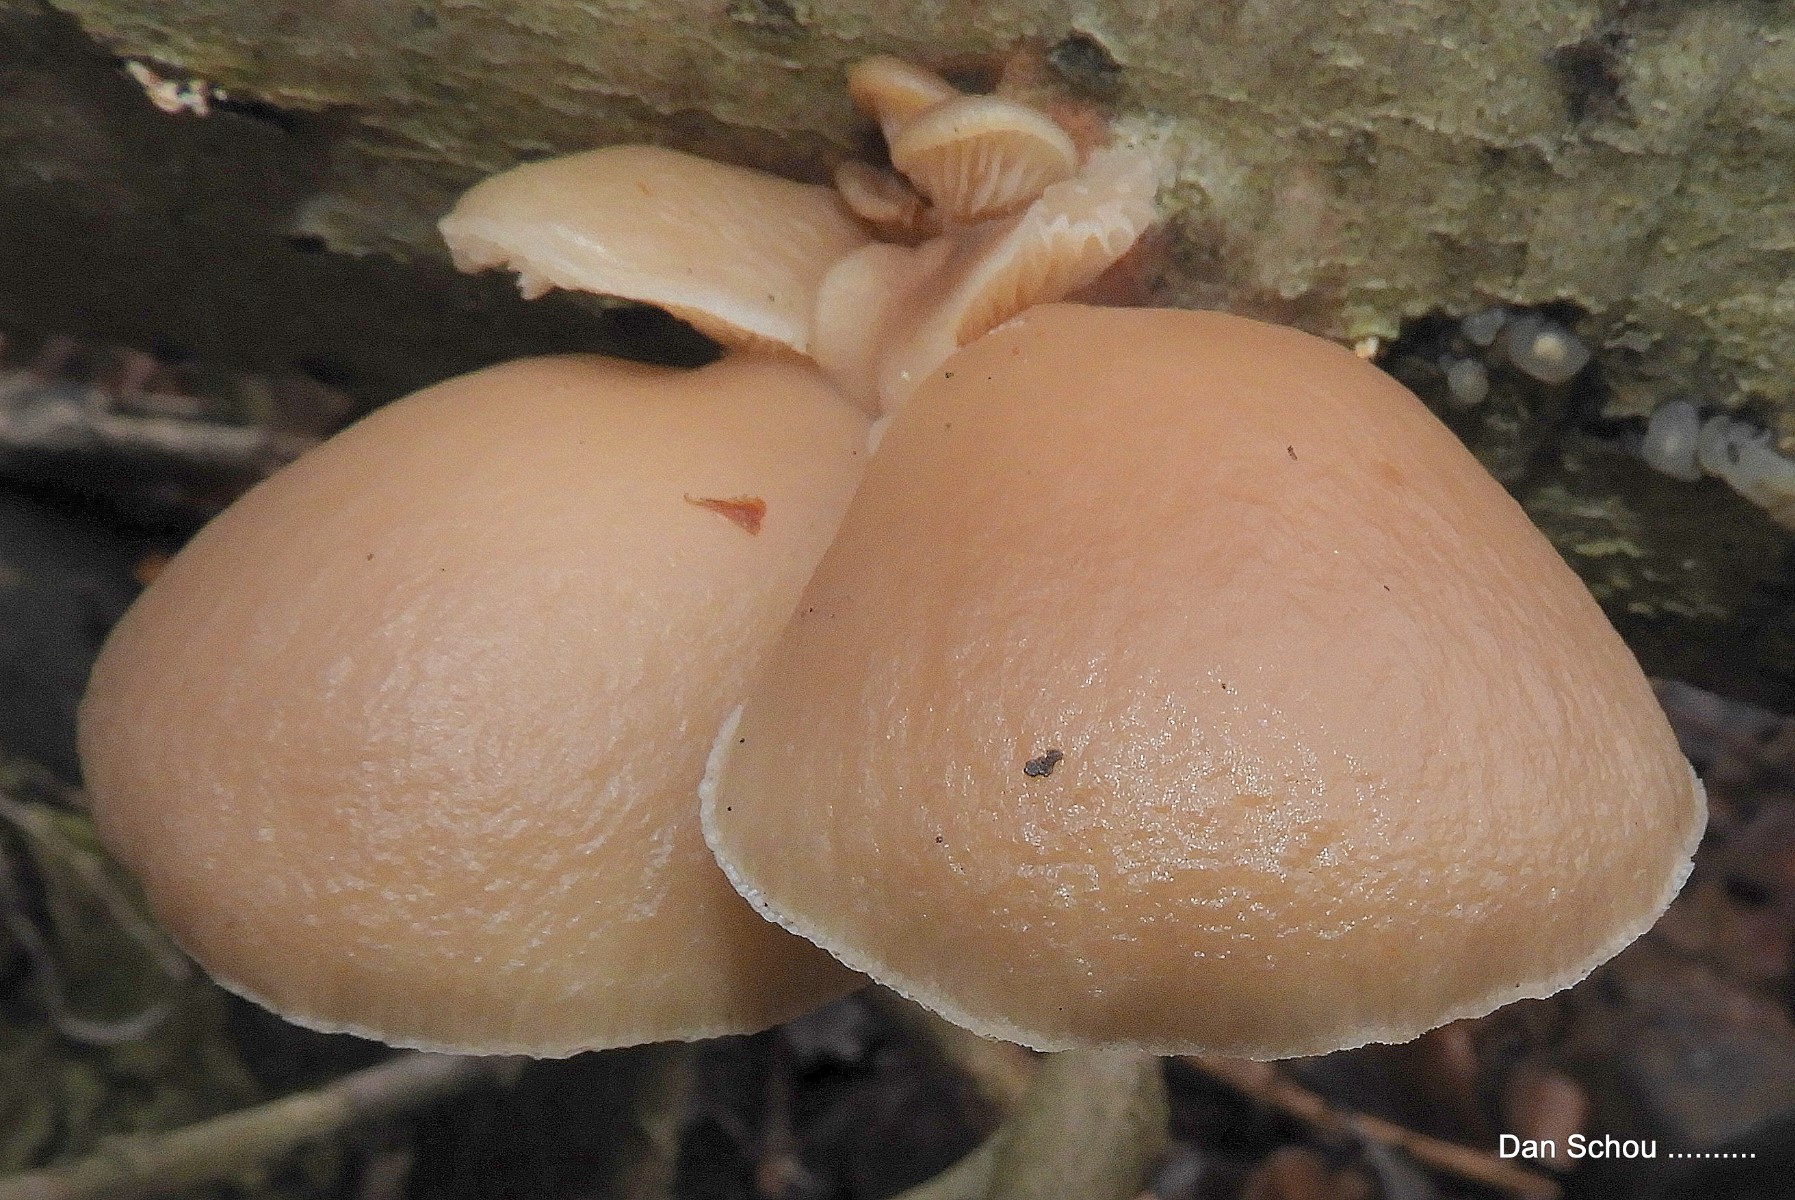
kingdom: Fungi
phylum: Basidiomycota
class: Agaricomycetes
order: Agaricales
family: Pleurotaceae
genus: Pleurotus
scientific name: Pleurotus ostreatus
